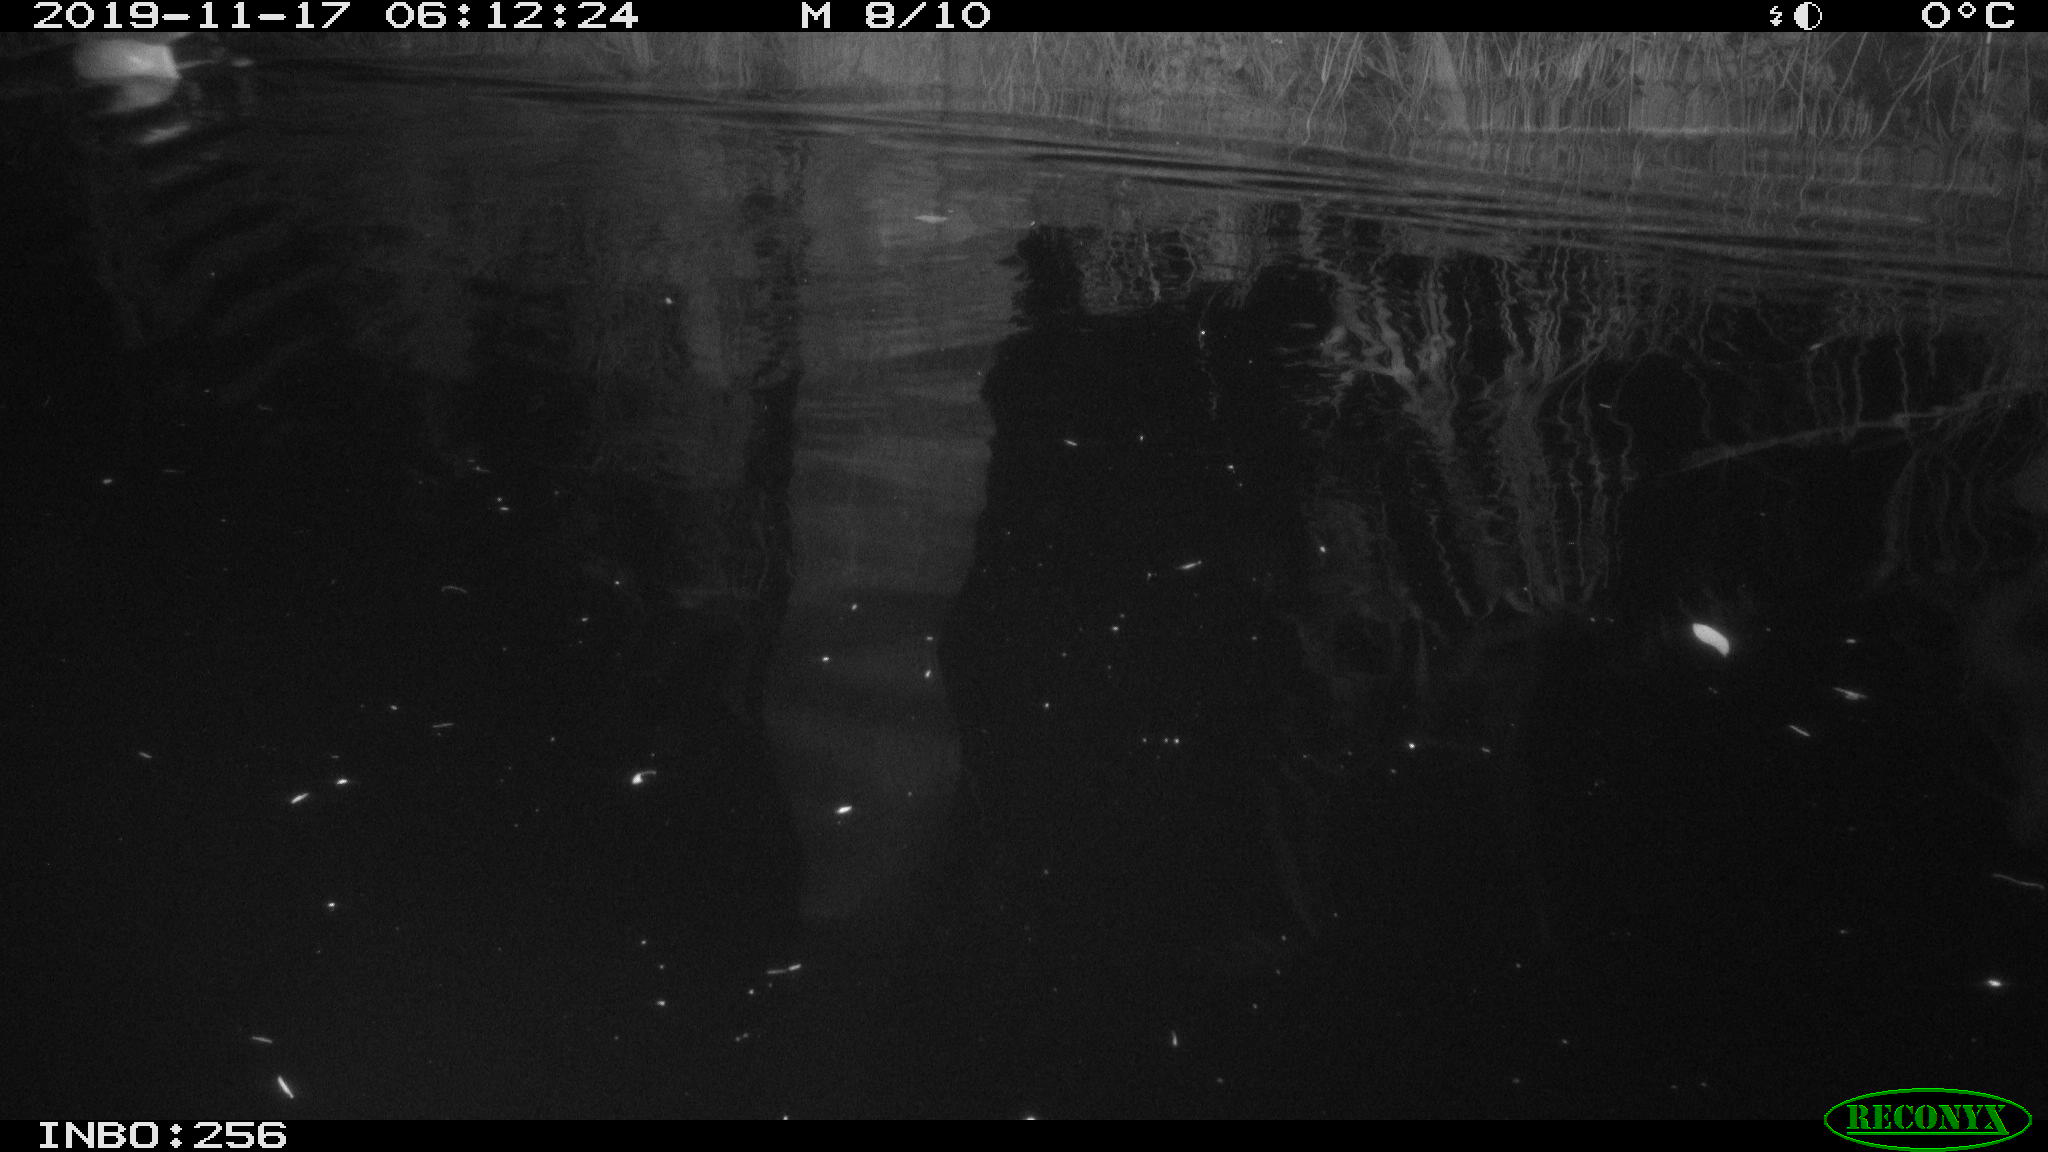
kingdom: Animalia
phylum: Chordata
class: Aves
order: Anseriformes
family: Anatidae
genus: Anas
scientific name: Anas platyrhynchos
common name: Mallard
